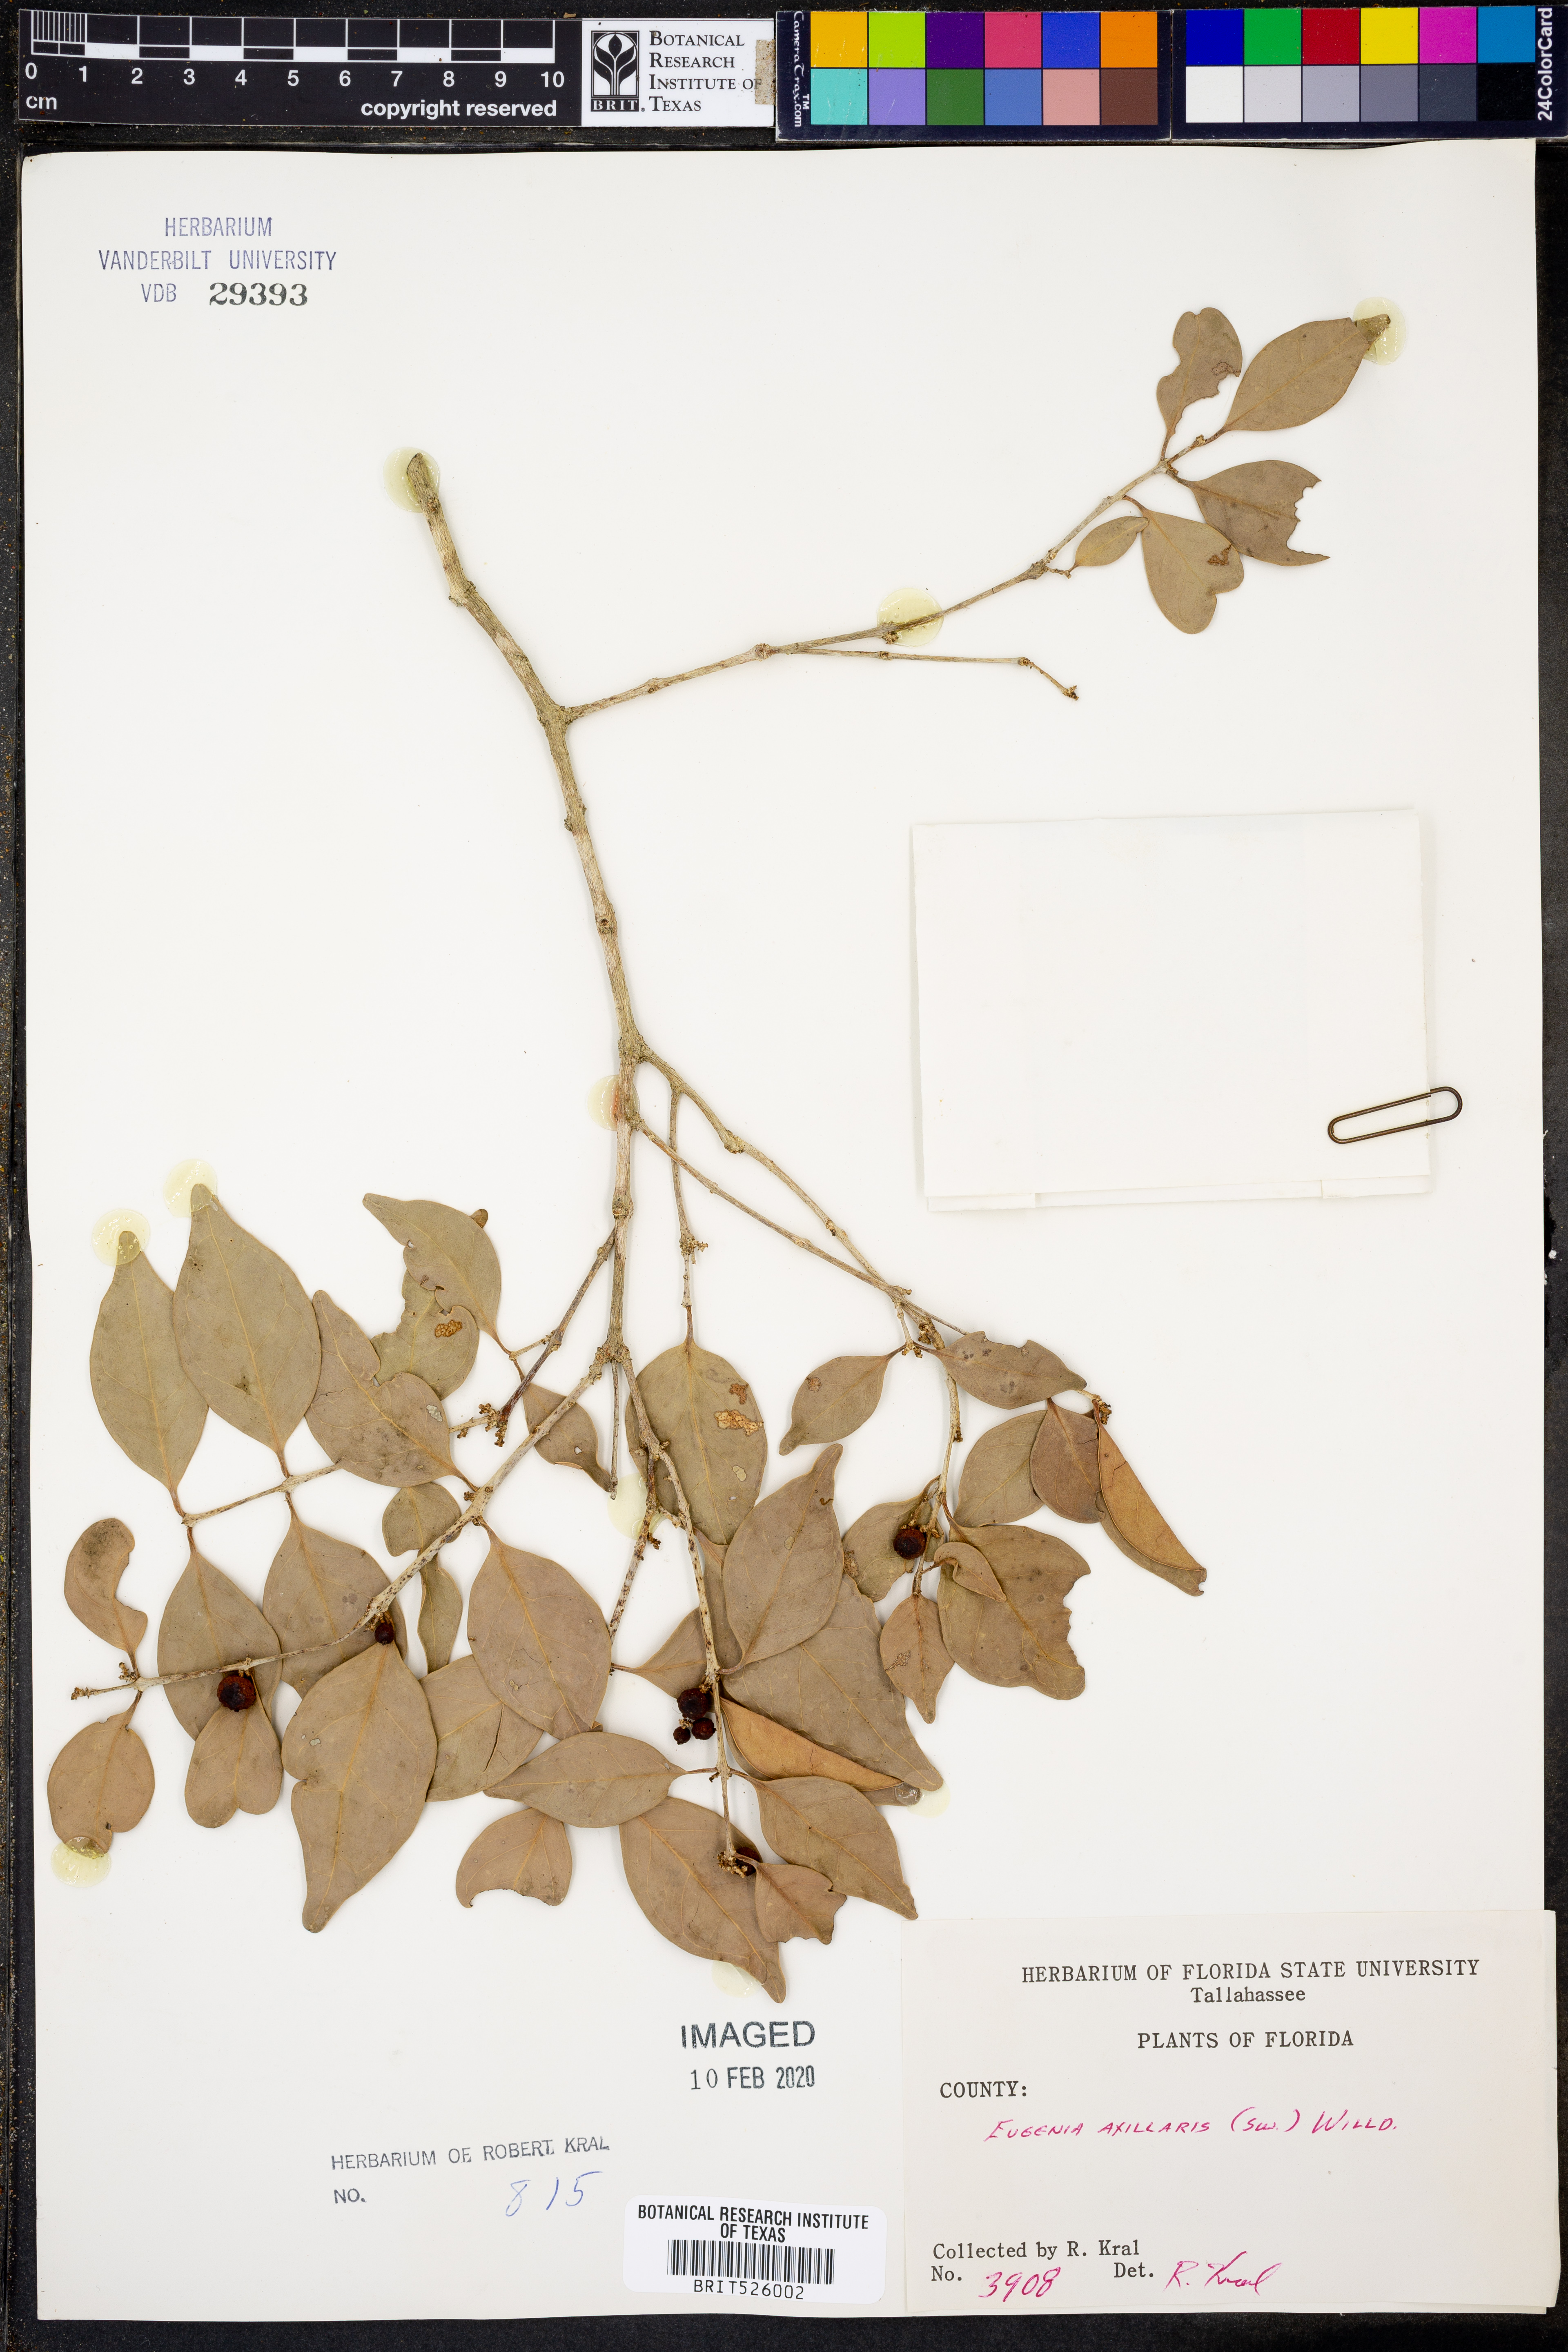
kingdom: Plantae
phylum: Tracheophyta
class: Magnoliopsida
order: Myrtales
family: Myrtaceae
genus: Eugenia
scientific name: Eugenia axillaris
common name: Choaky berry
